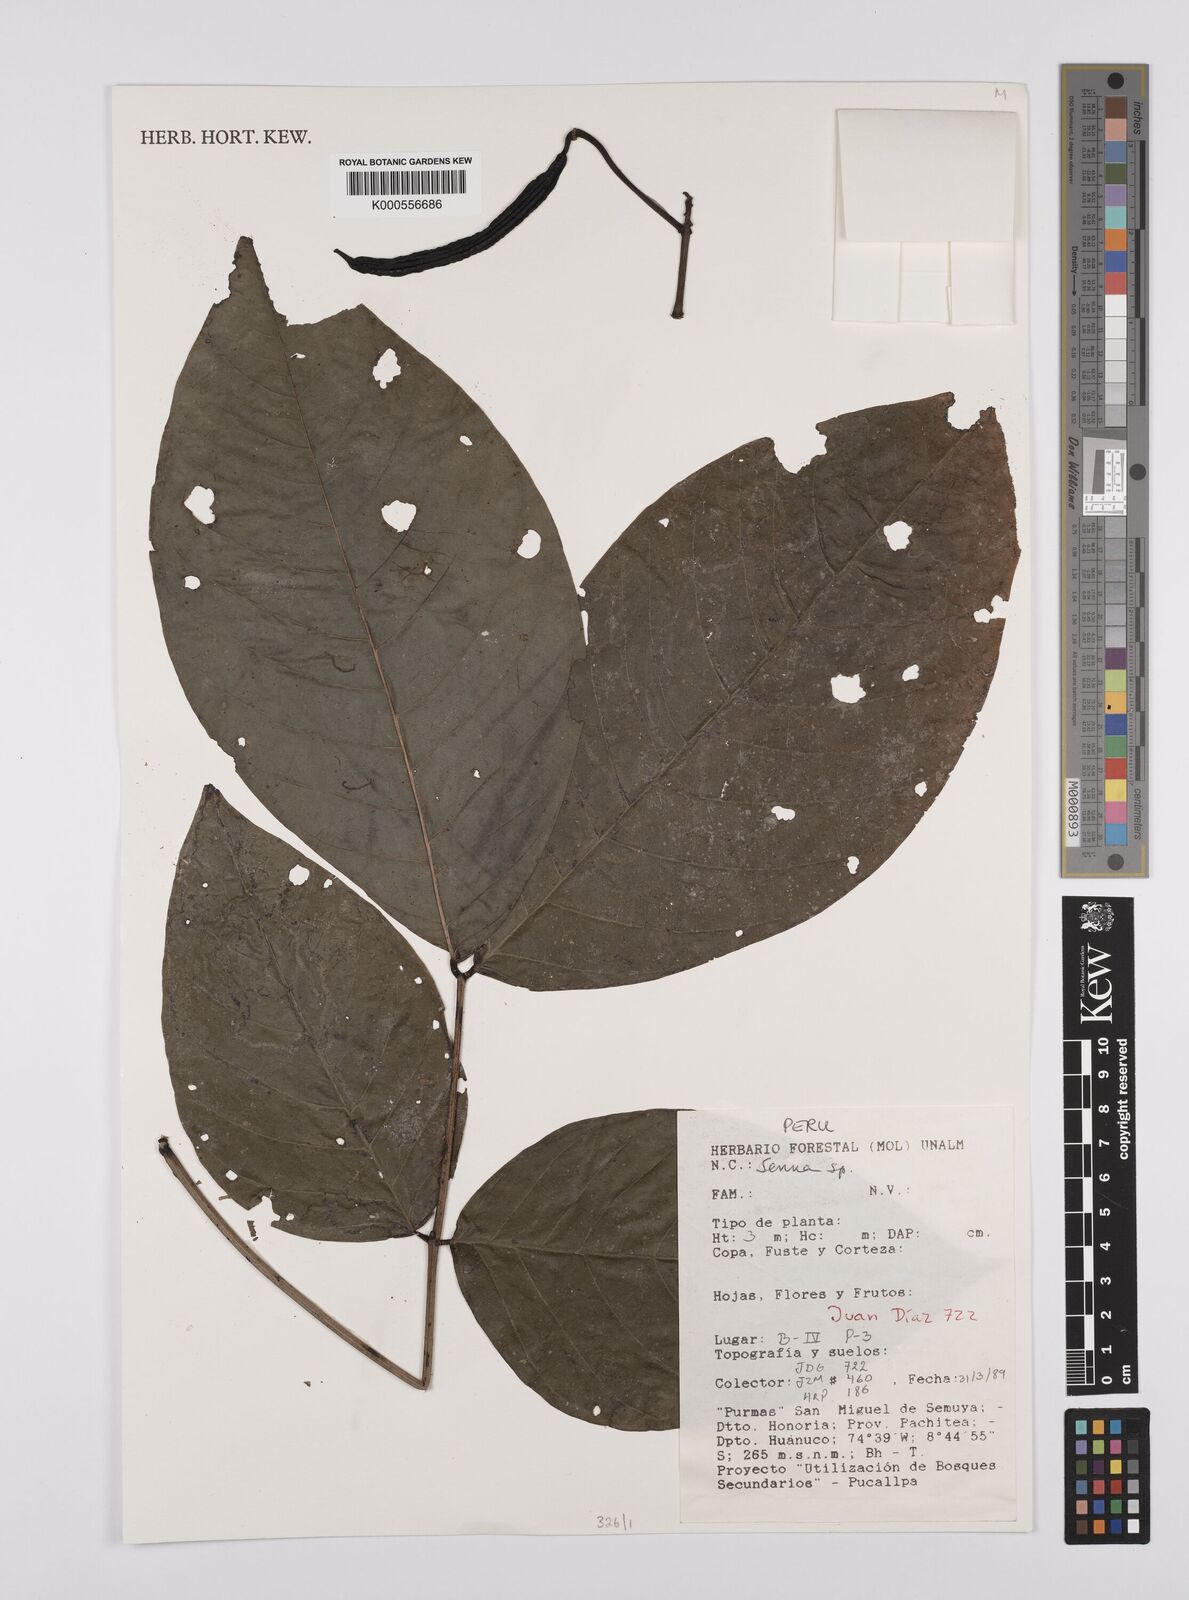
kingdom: Plantae
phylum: Tracheophyta
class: Magnoliopsida
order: Fabales
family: Fabaceae
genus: Senna
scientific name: Senna
